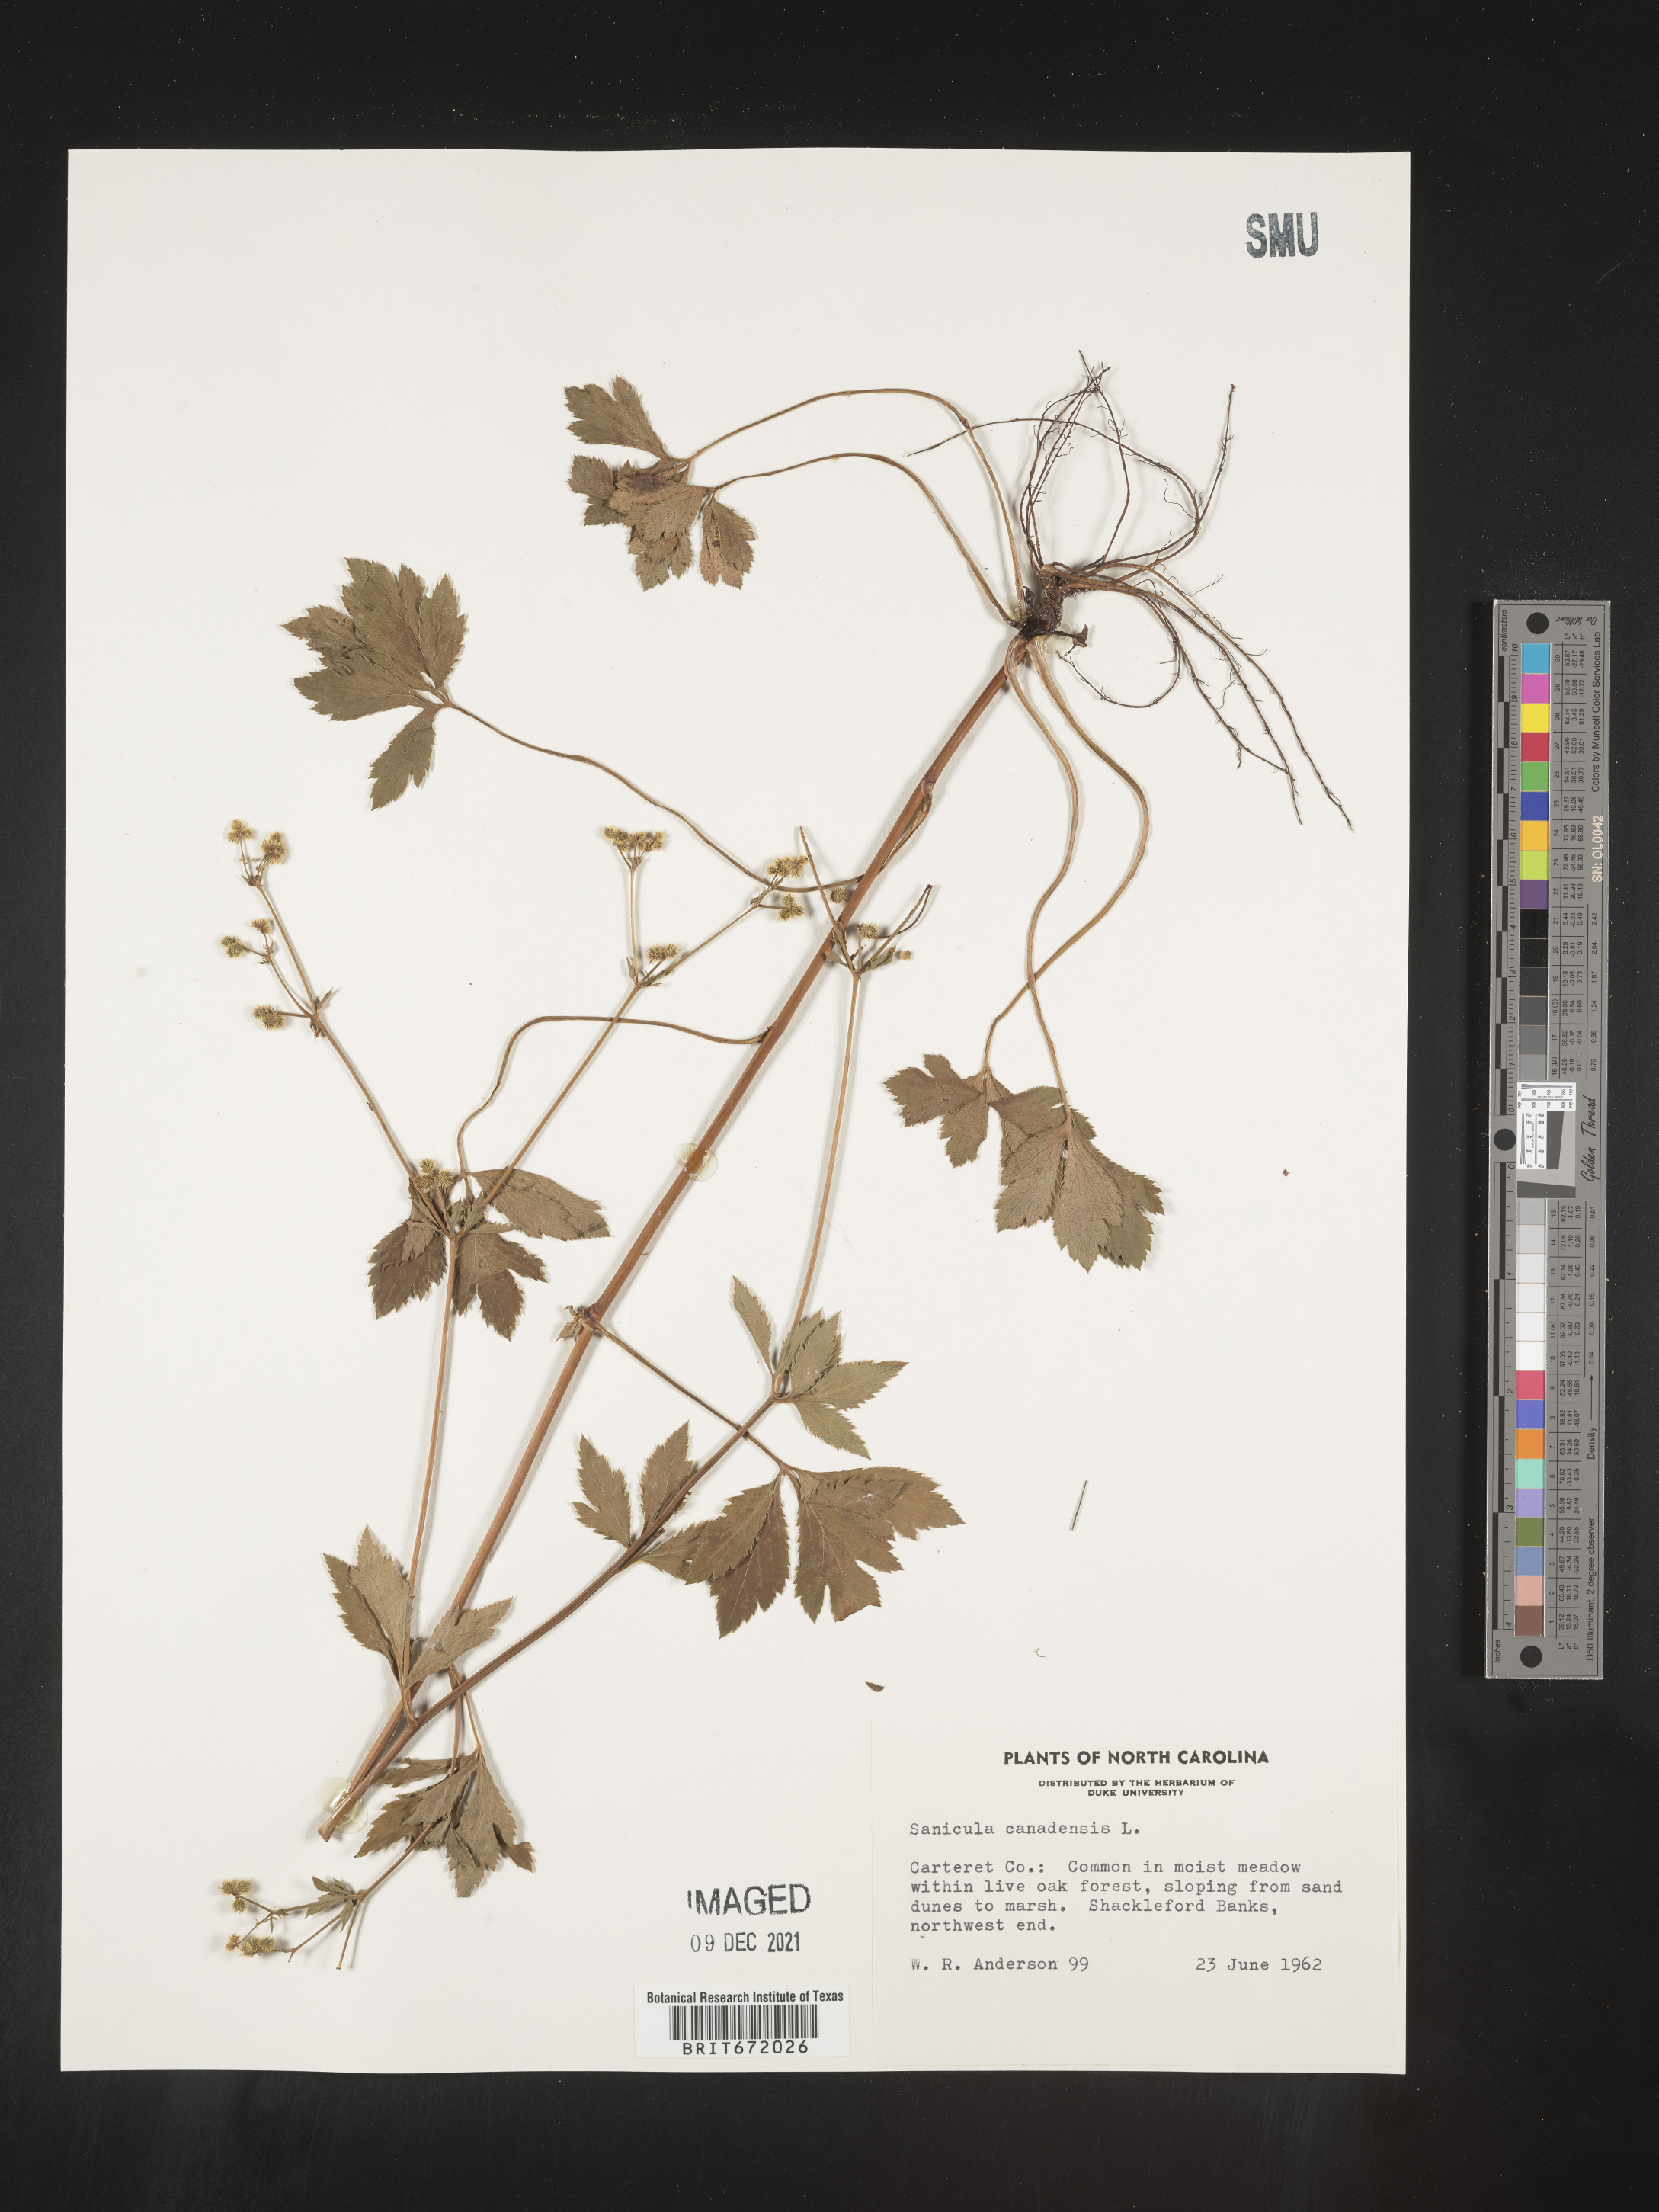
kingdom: Plantae
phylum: Tracheophyta
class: Magnoliopsida
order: Apiales
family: Apiaceae
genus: Sanicula
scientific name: Sanicula canadensis
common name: Canada sanicle
